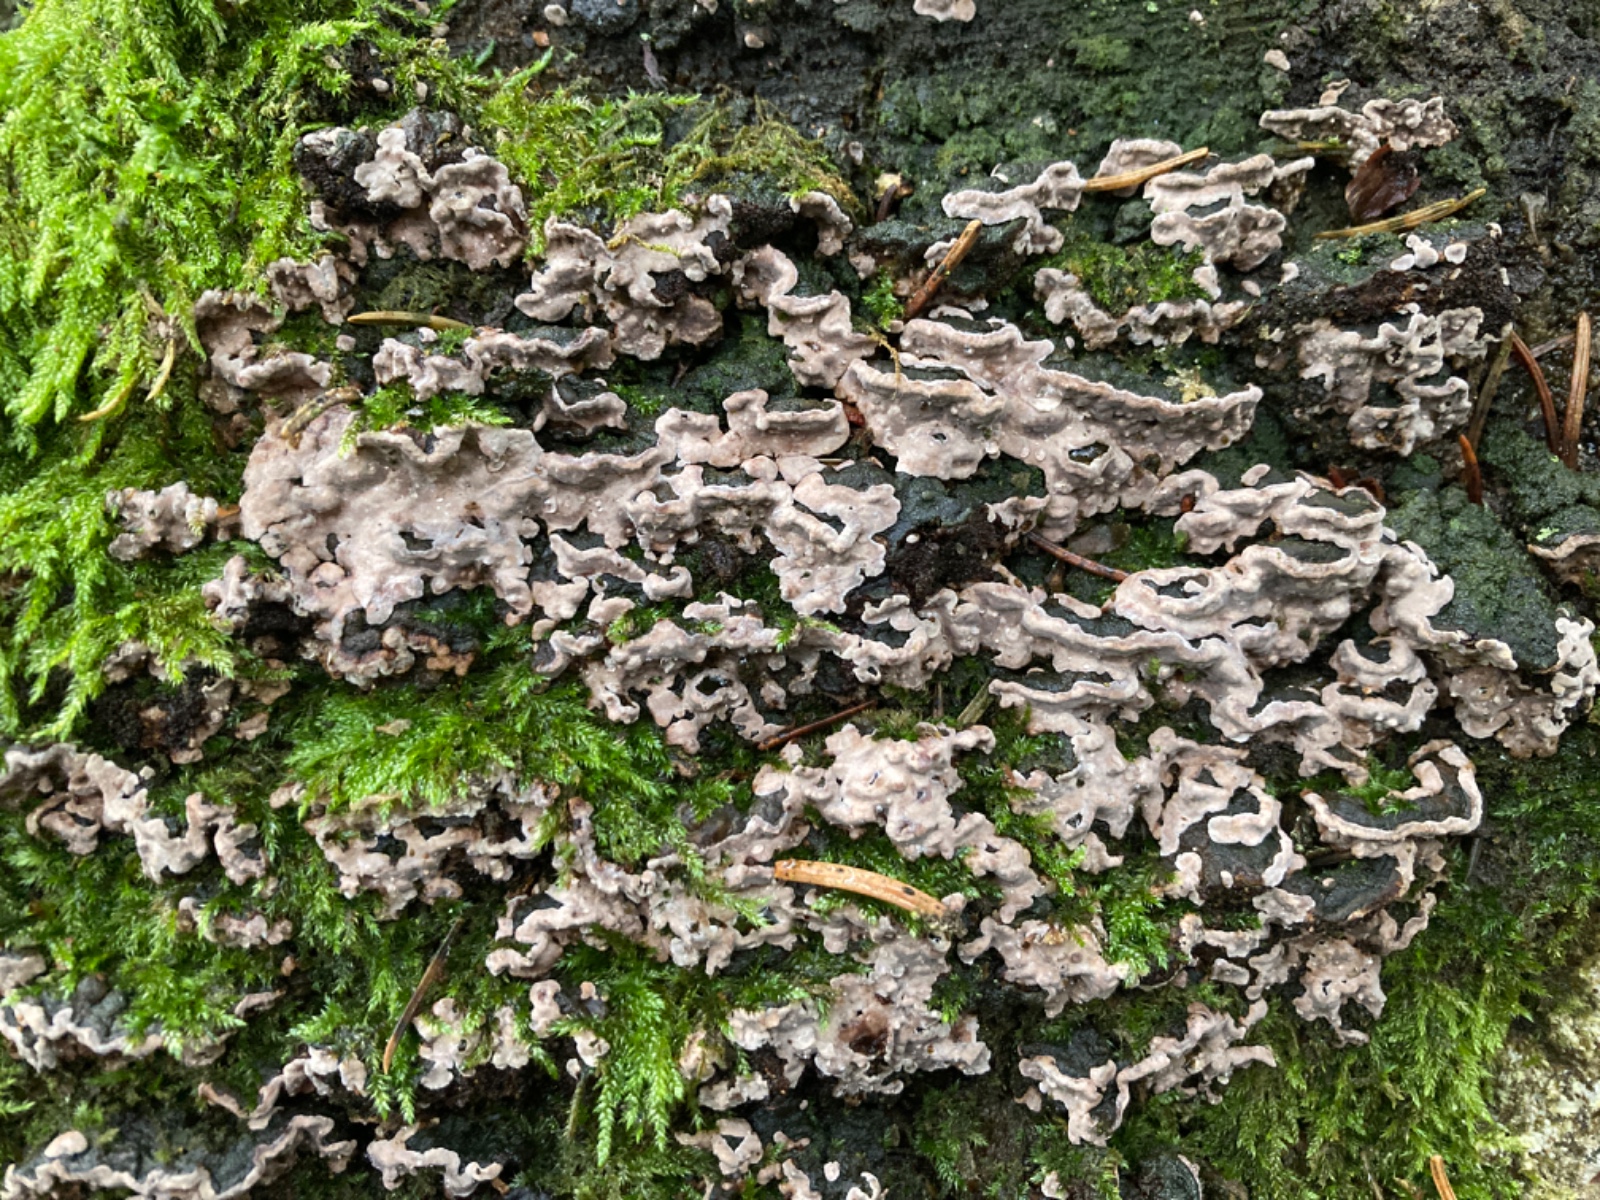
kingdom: Fungi
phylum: Basidiomycota
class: Agaricomycetes
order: Russulales
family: Echinodontiaceae
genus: Amylostereum
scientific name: Amylostereum chailletii
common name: gran-lædersvamp
